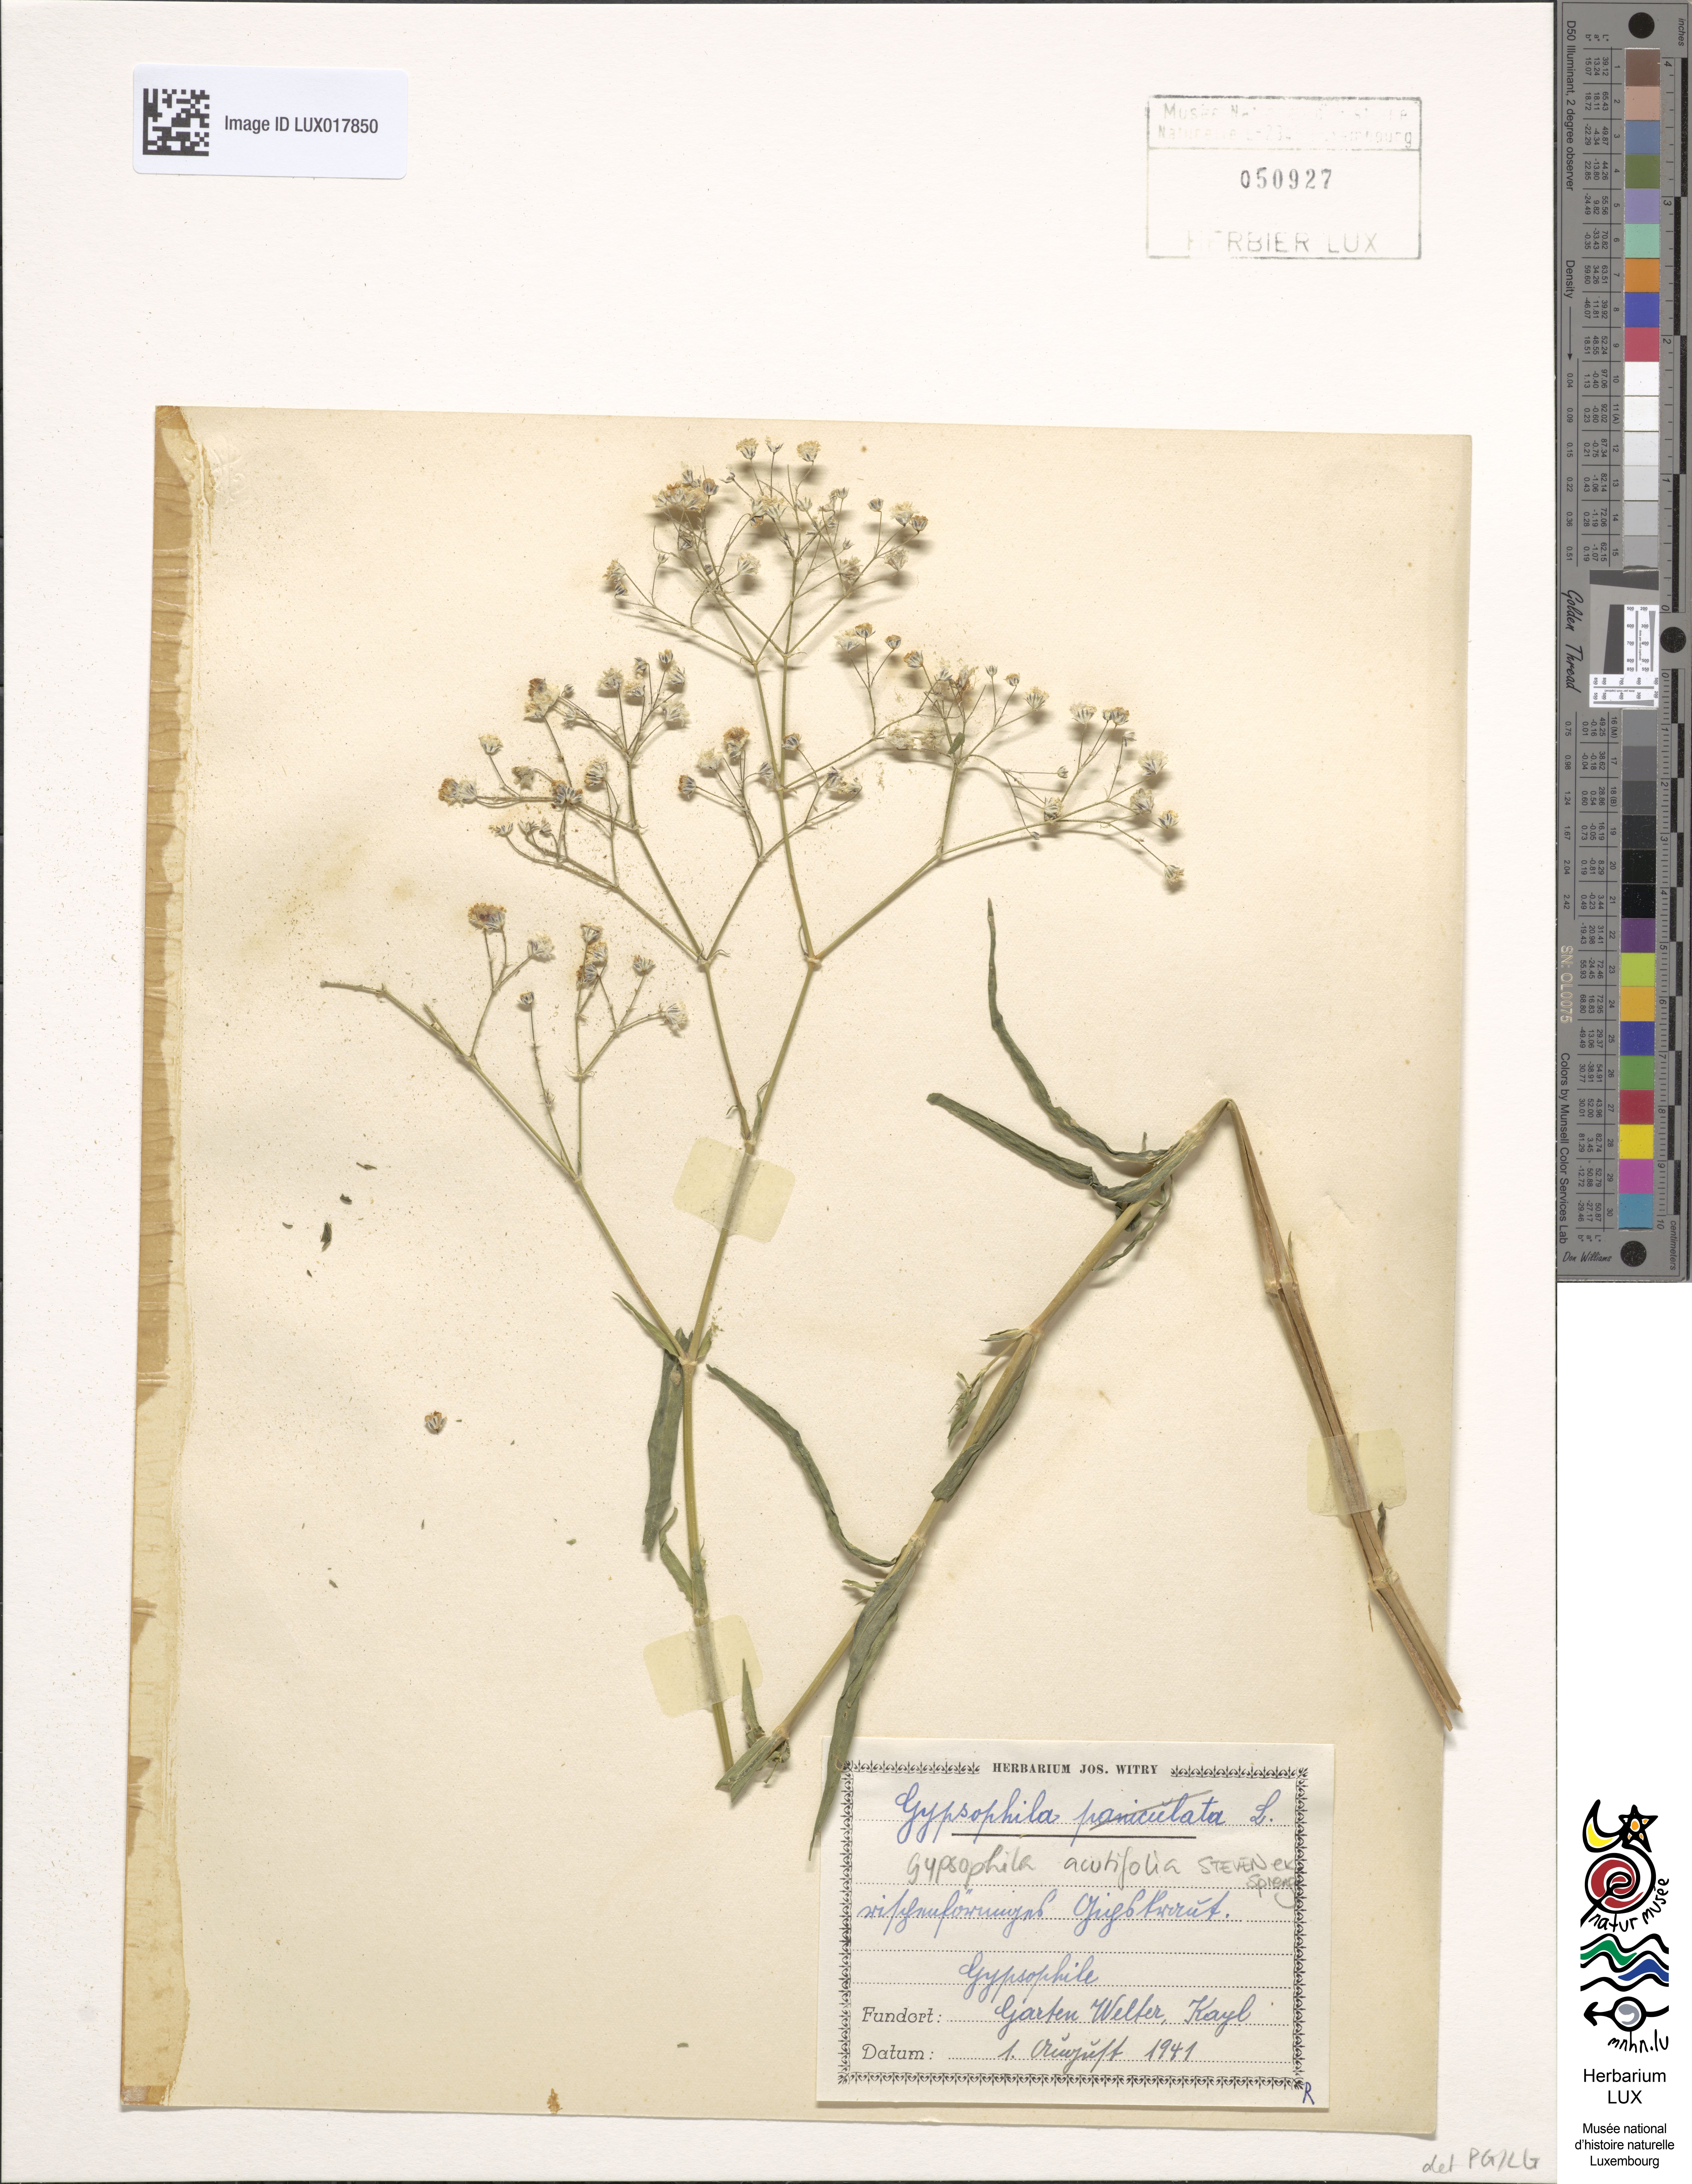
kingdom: Plantae
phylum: Tracheophyta
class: Magnoliopsida
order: Caryophyllales
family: Caryophyllaceae
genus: Gypsophila
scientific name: Gypsophila acutifolia
